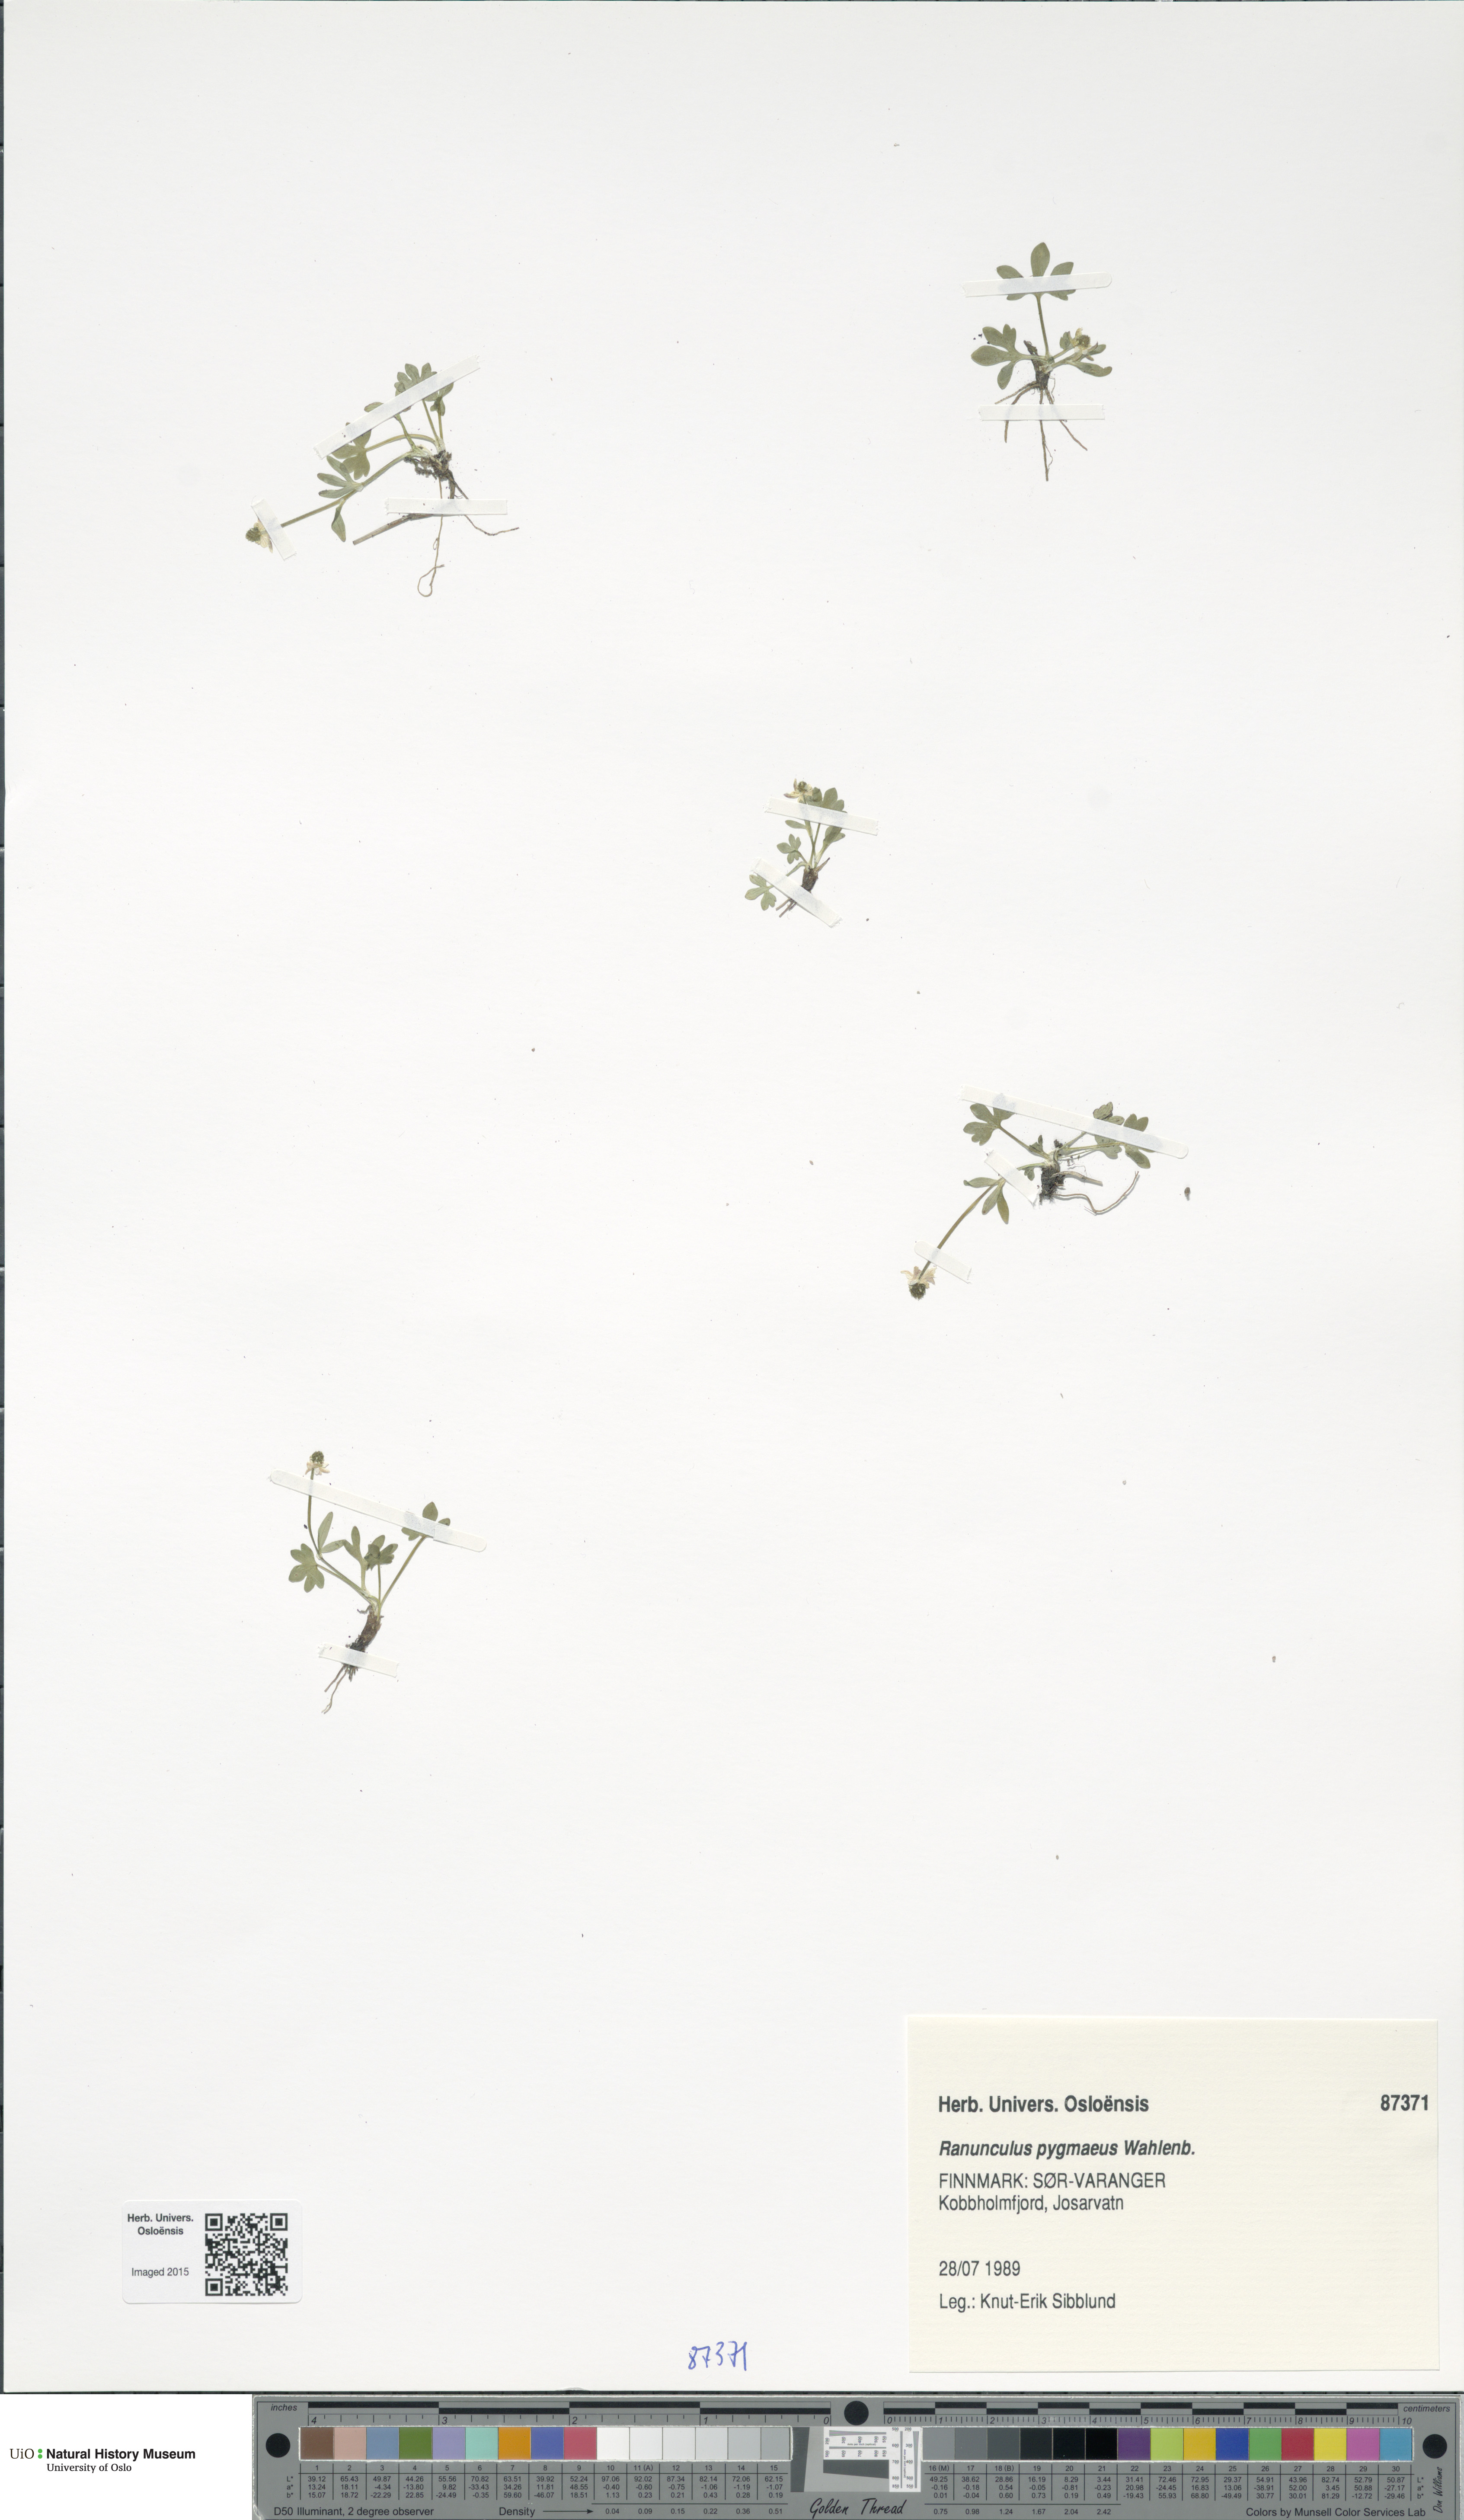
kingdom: Plantae
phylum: Tracheophyta
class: Magnoliopsida
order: Ranunculales
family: Ranunculaceae
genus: Ranunculus
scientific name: Ranunculus pygmaeus
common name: Dwarf buttercup
